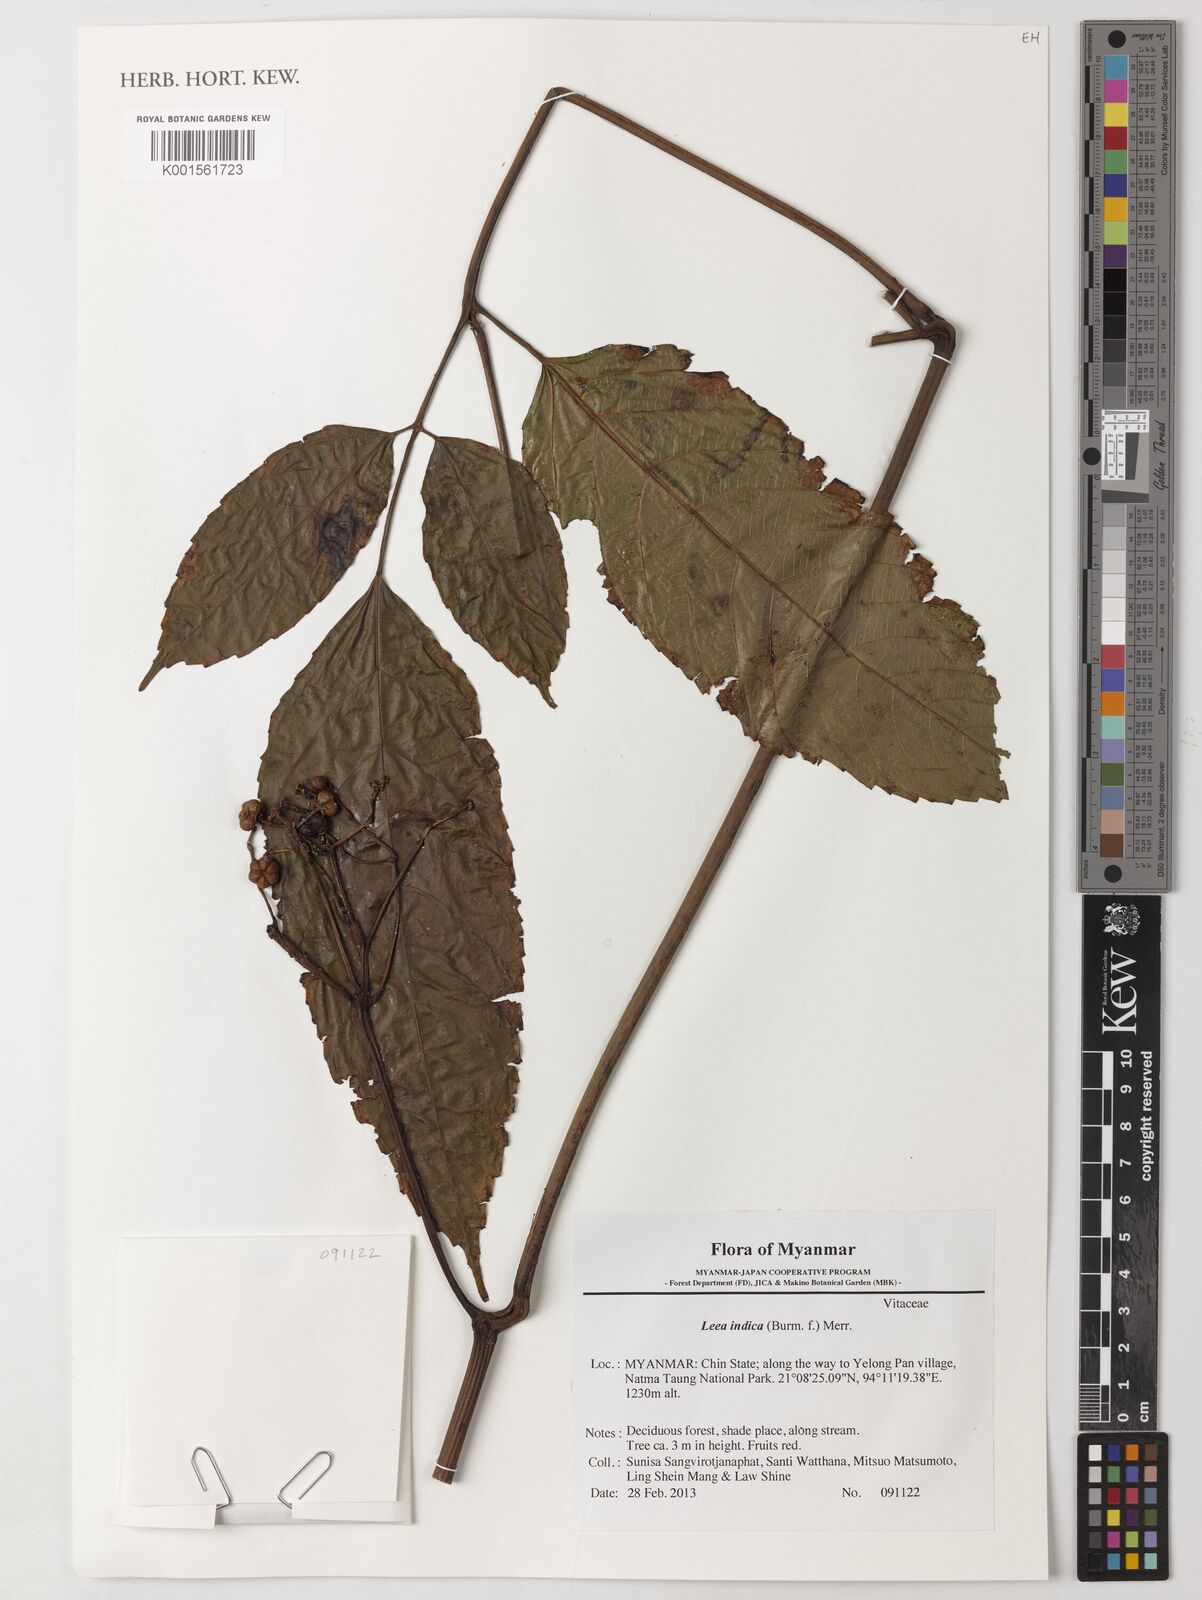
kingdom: Plantae
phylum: Tracheophyta
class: Magnoliopsida
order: Vitales
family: Vitaceae
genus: Leea
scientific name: Leea indica
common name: Bandicoot-berry
